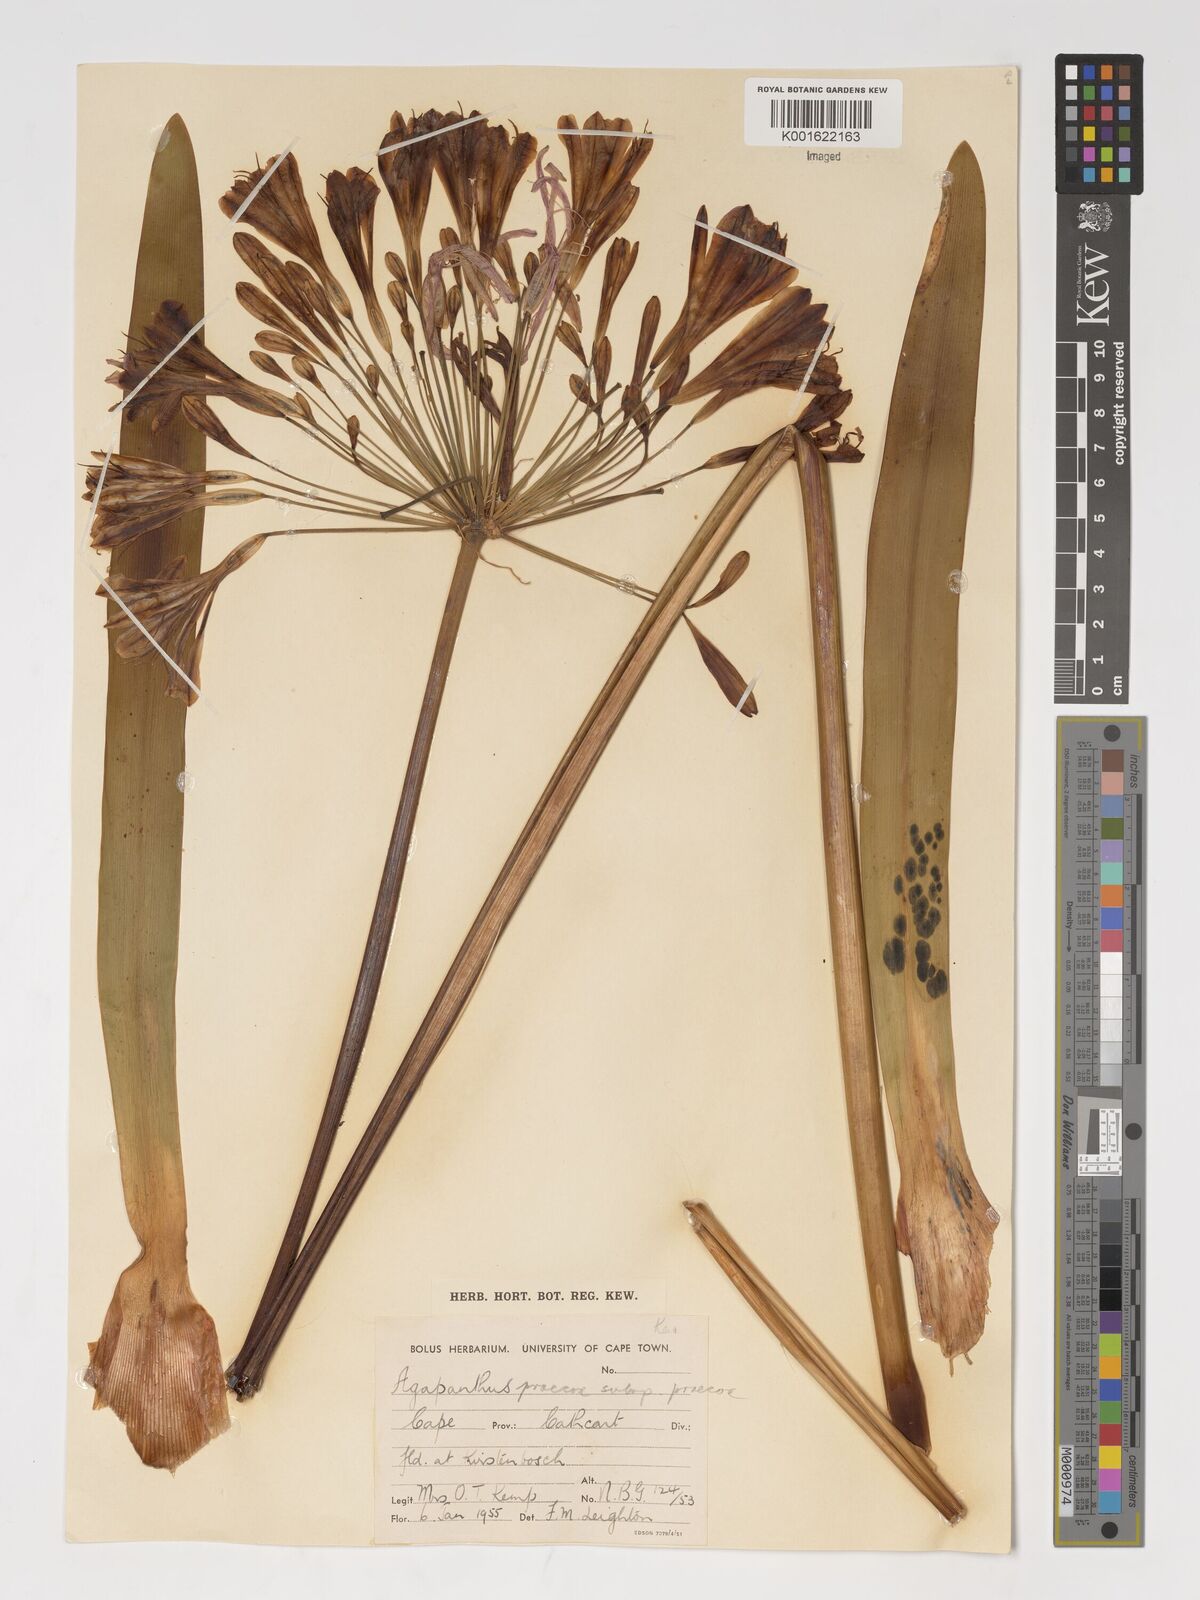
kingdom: Plantae
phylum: Tracheophyta
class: Liliopsida
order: Asparagales
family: Amaryllidaceae
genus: Agapanthus
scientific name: Agapanthus praecox
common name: African-lily
